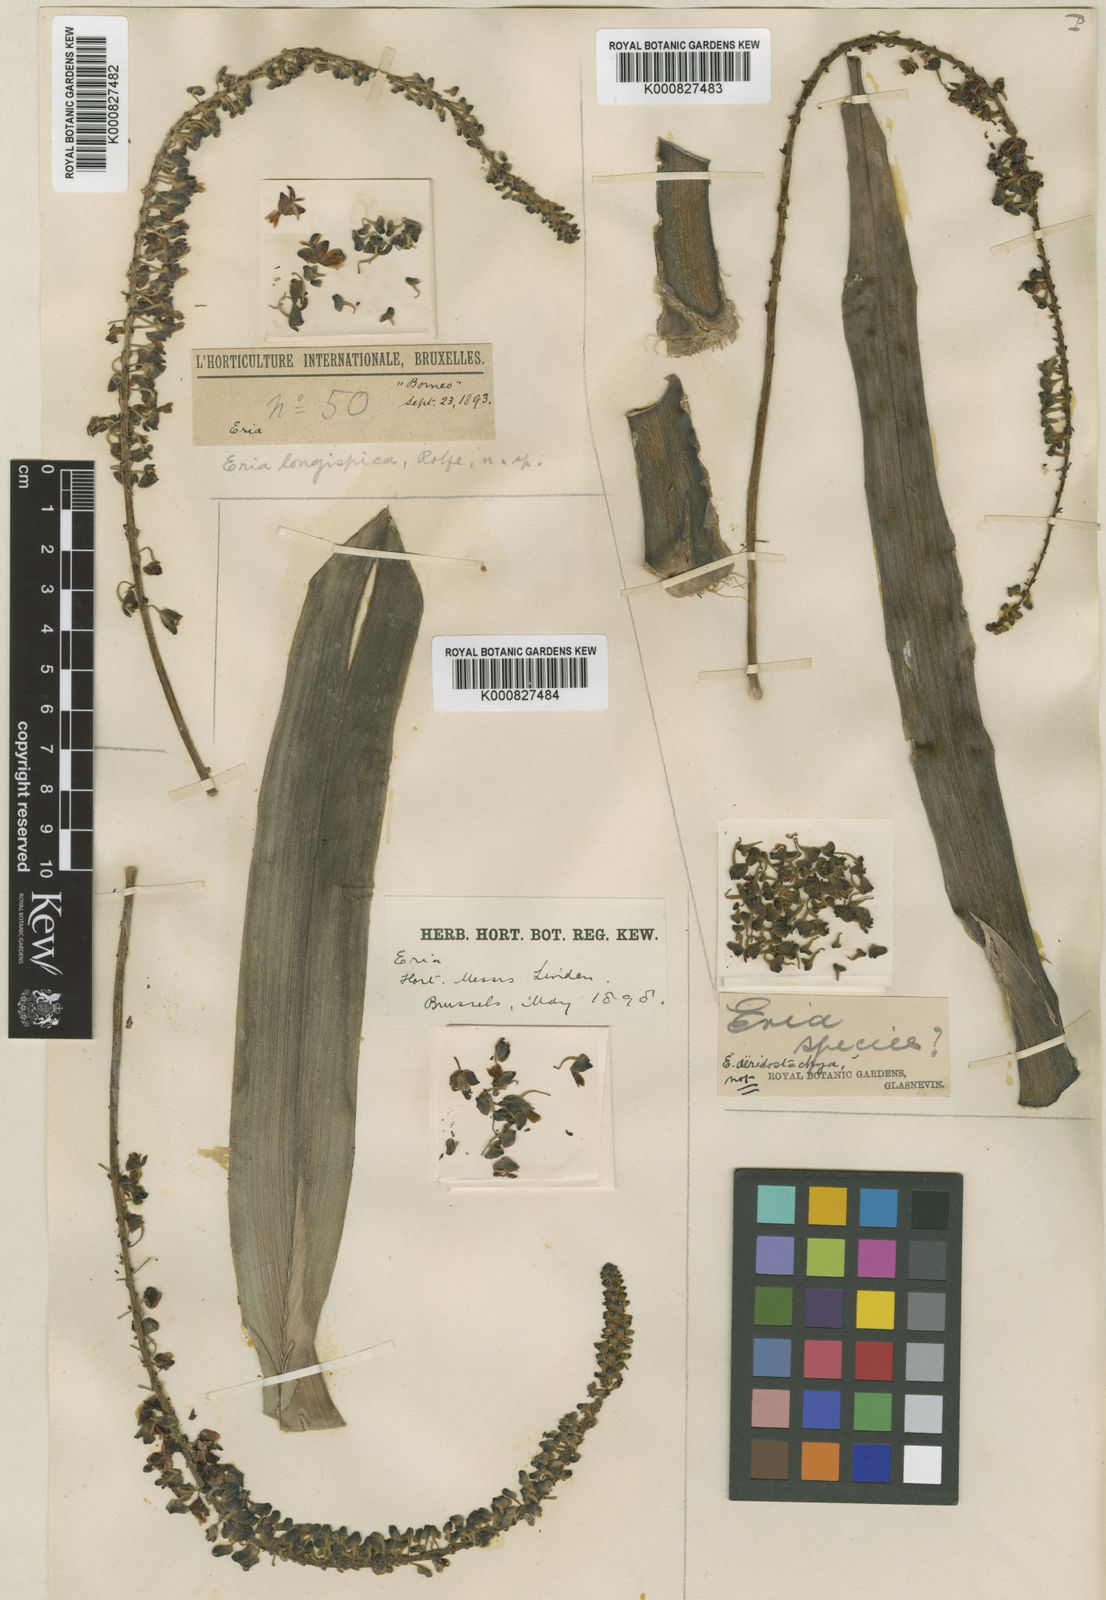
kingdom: Plantae
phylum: Tracheophyta
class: Liliopsida
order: Asparagales
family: Orchidaceae
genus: Mycaranthes
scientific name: Mycaranthes latifolia
